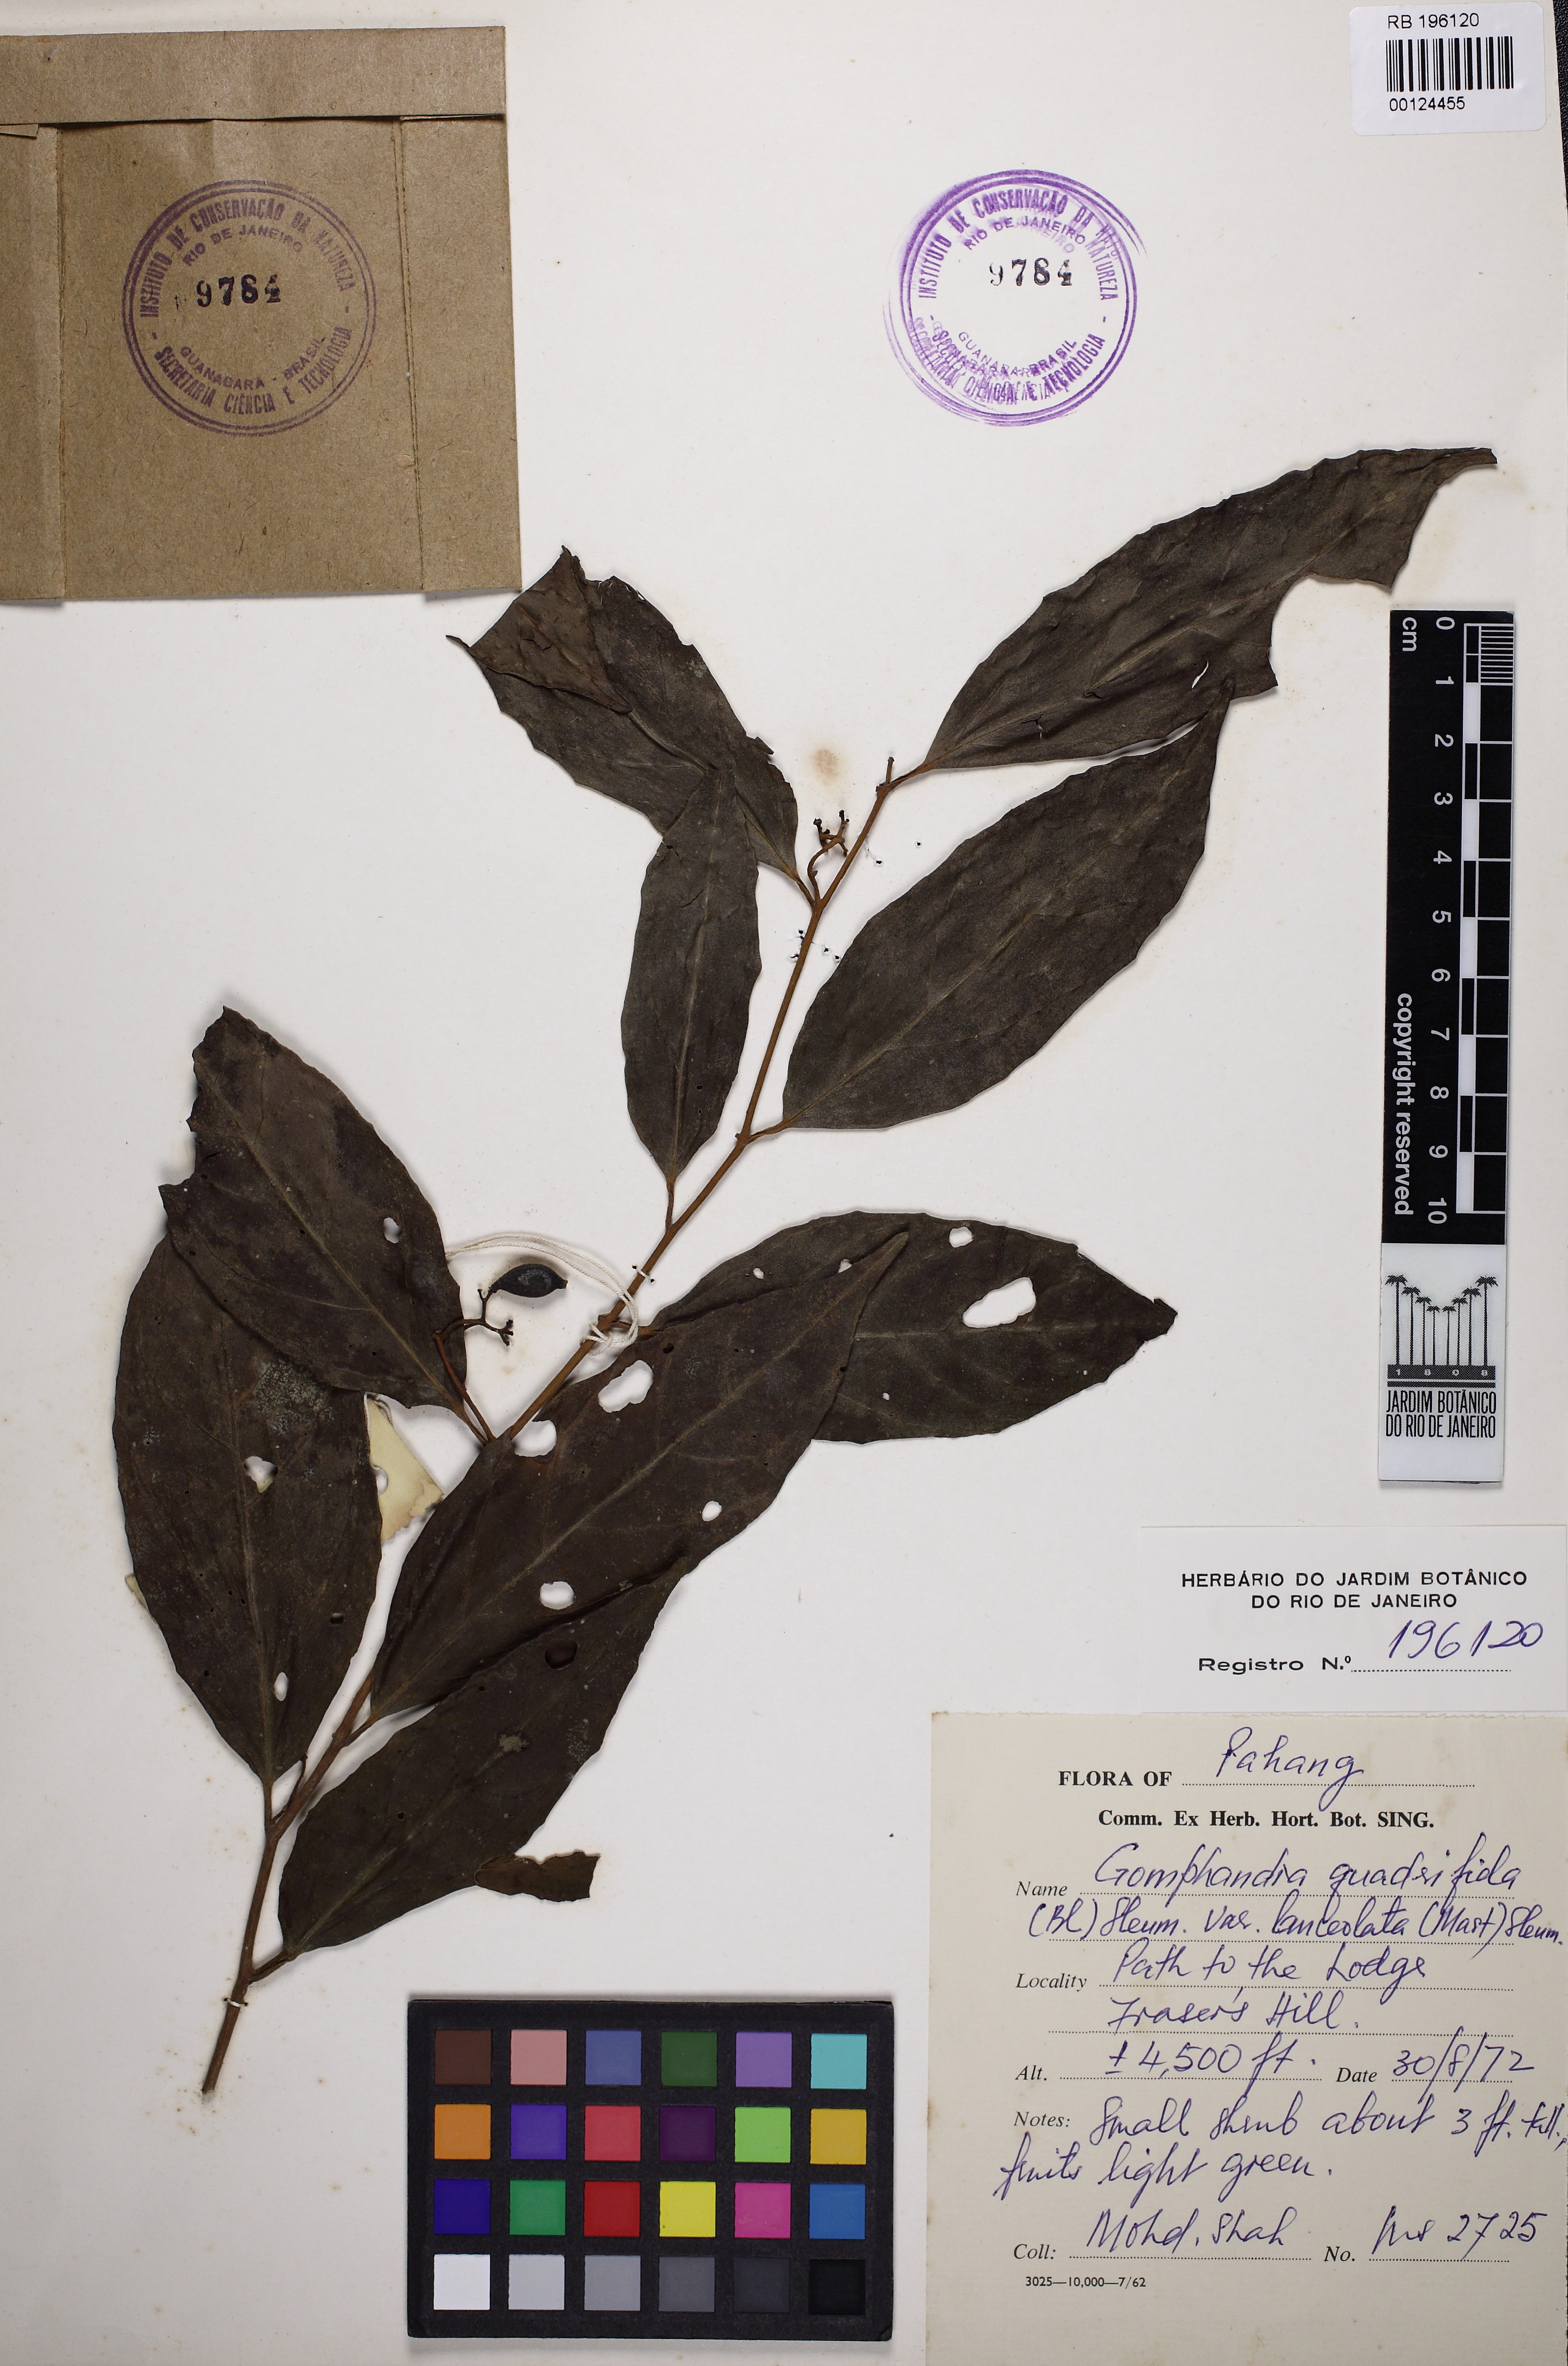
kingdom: Plantae
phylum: Tracheophyta
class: Magnoliopsida
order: Cardiopteridales
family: Stemonuraceae
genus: Gomphandra
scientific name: Gomphandra quadrifida
